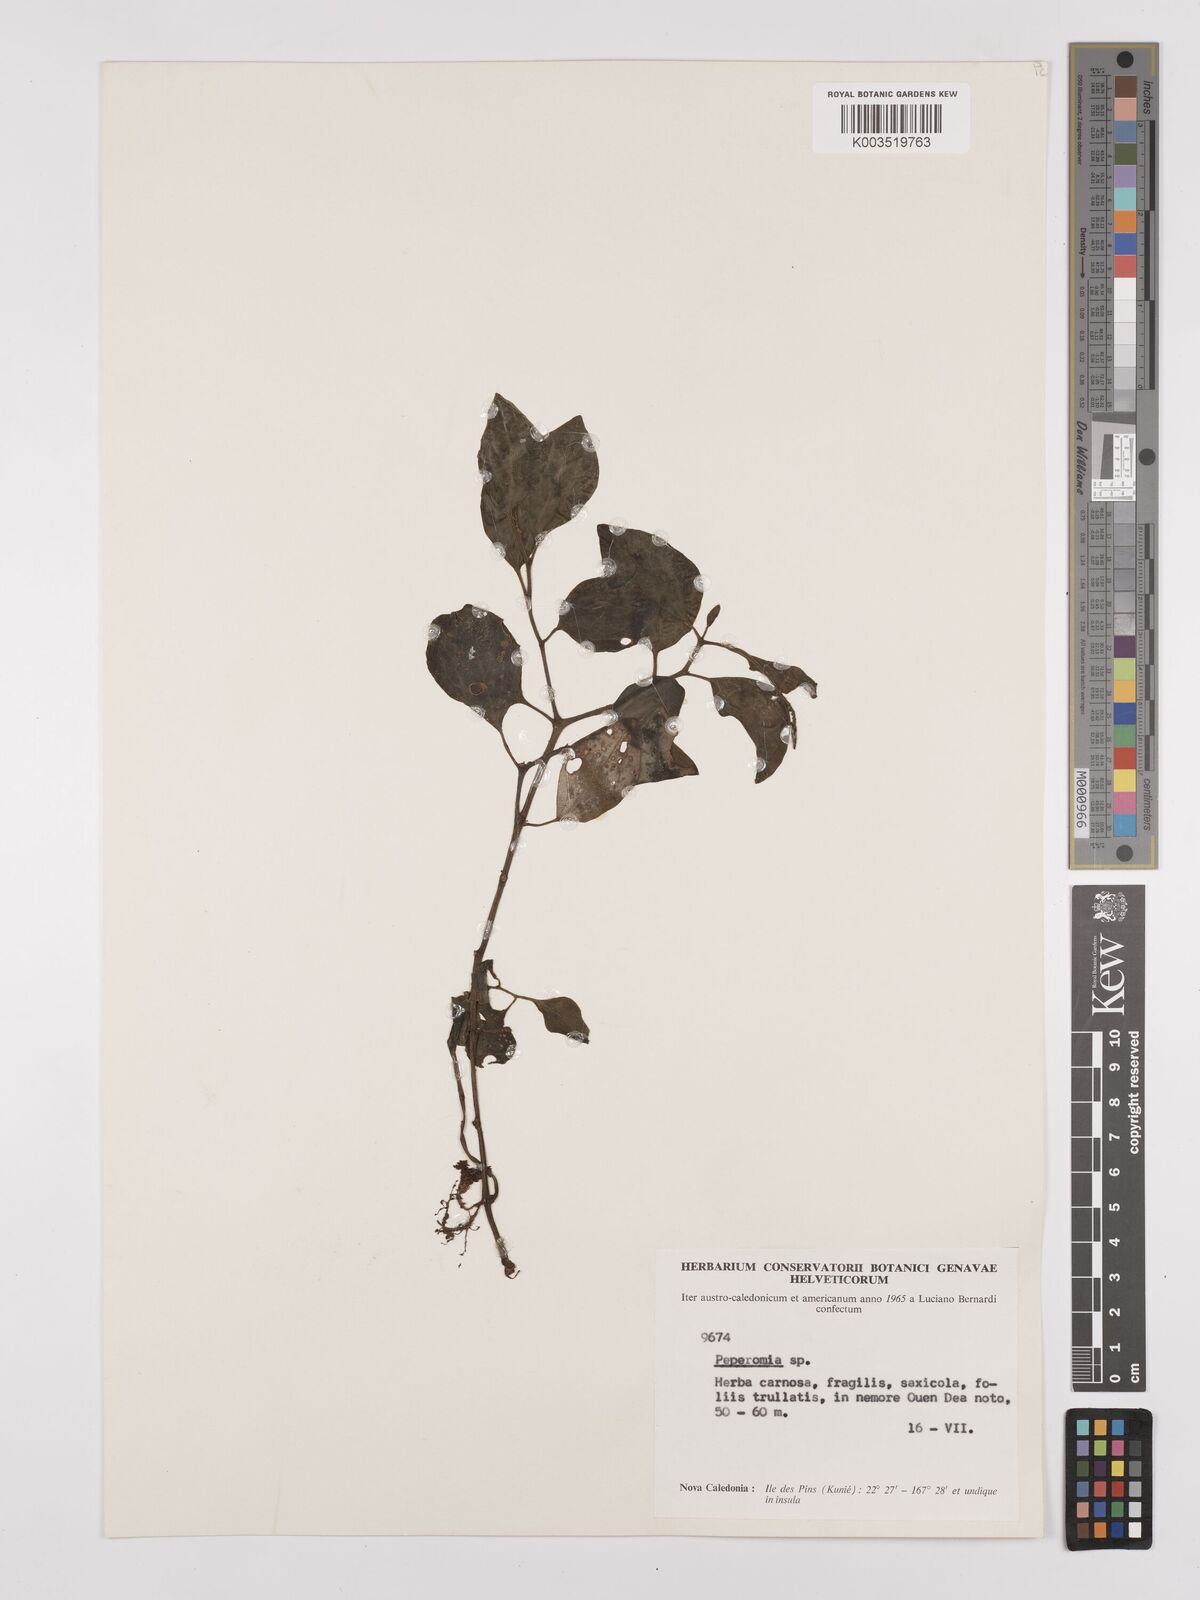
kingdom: Plantae
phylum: Tracheophyta
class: Magnoliopsida
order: Piperales
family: Piperaceae
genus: Peperomia
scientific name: Peperomia
